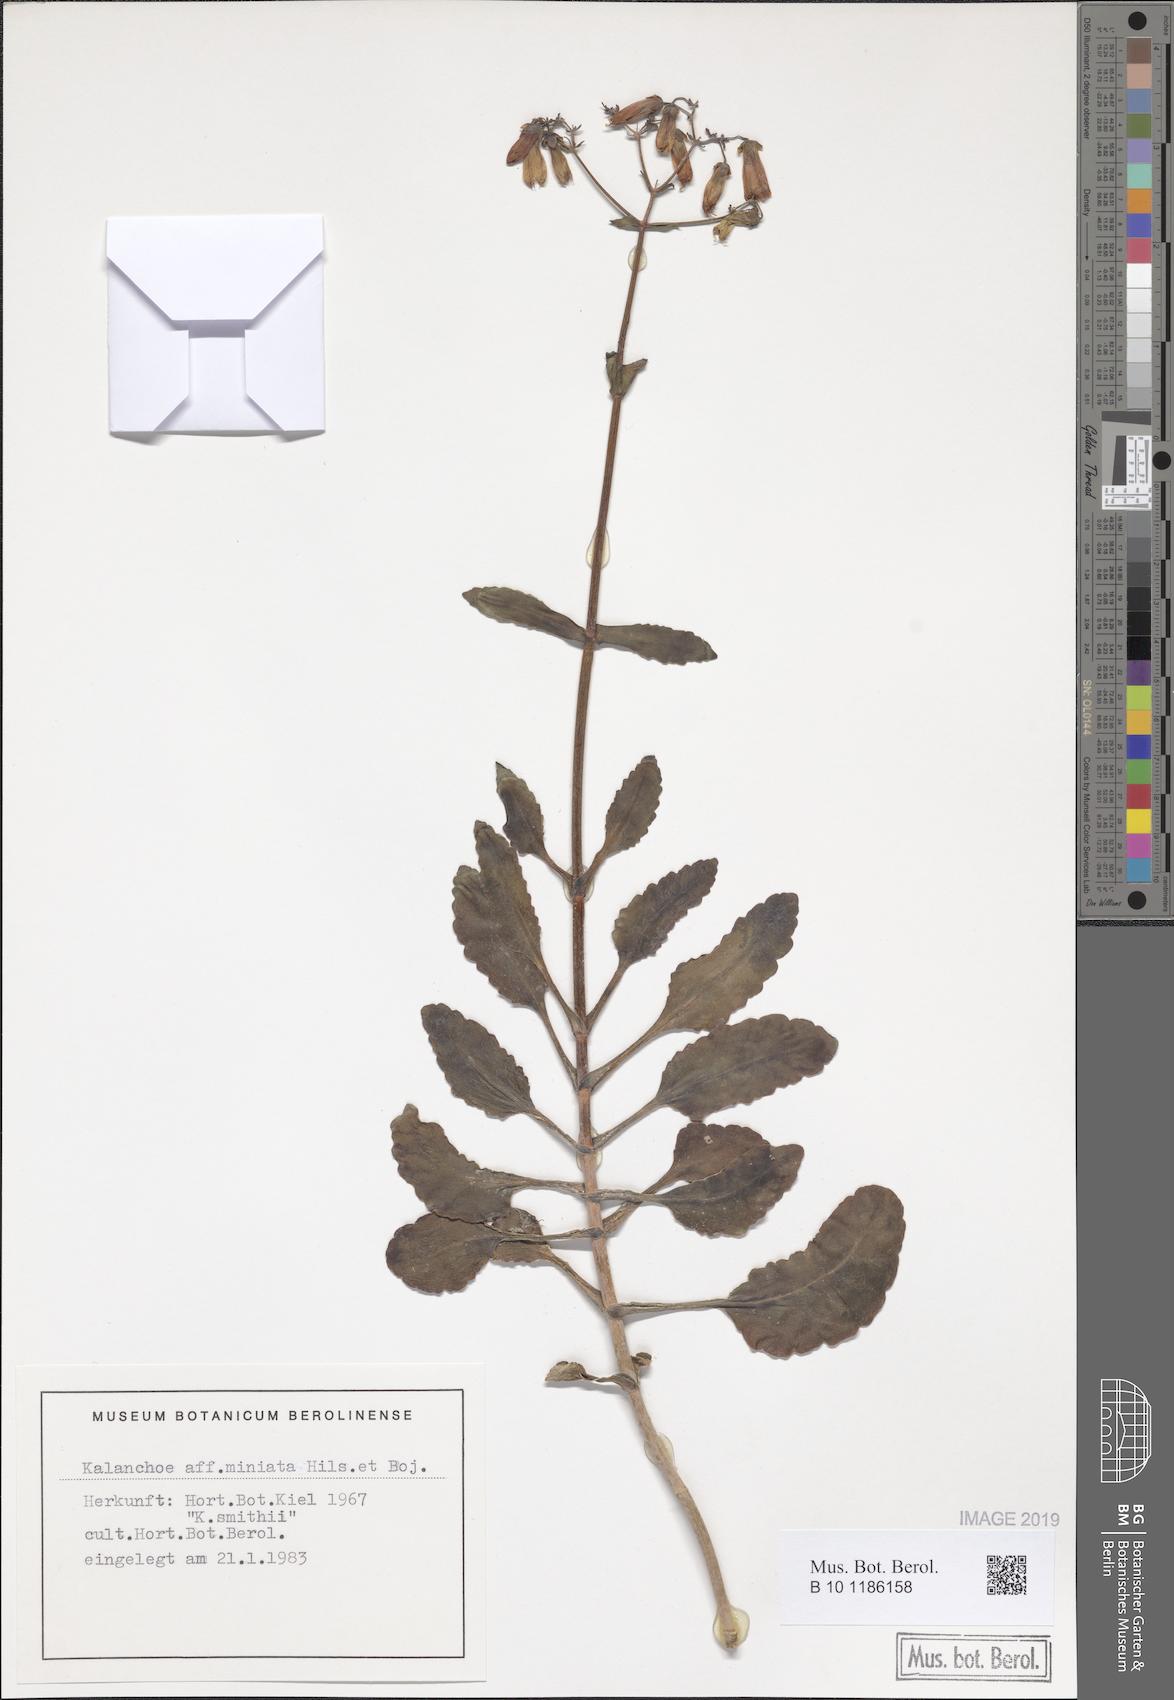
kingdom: Plantae
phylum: Tracheophyta
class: Magnoliopsida
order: Saxifragales
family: Crassulaceae
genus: Kalanchoe
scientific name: Kalanchoe miniata
